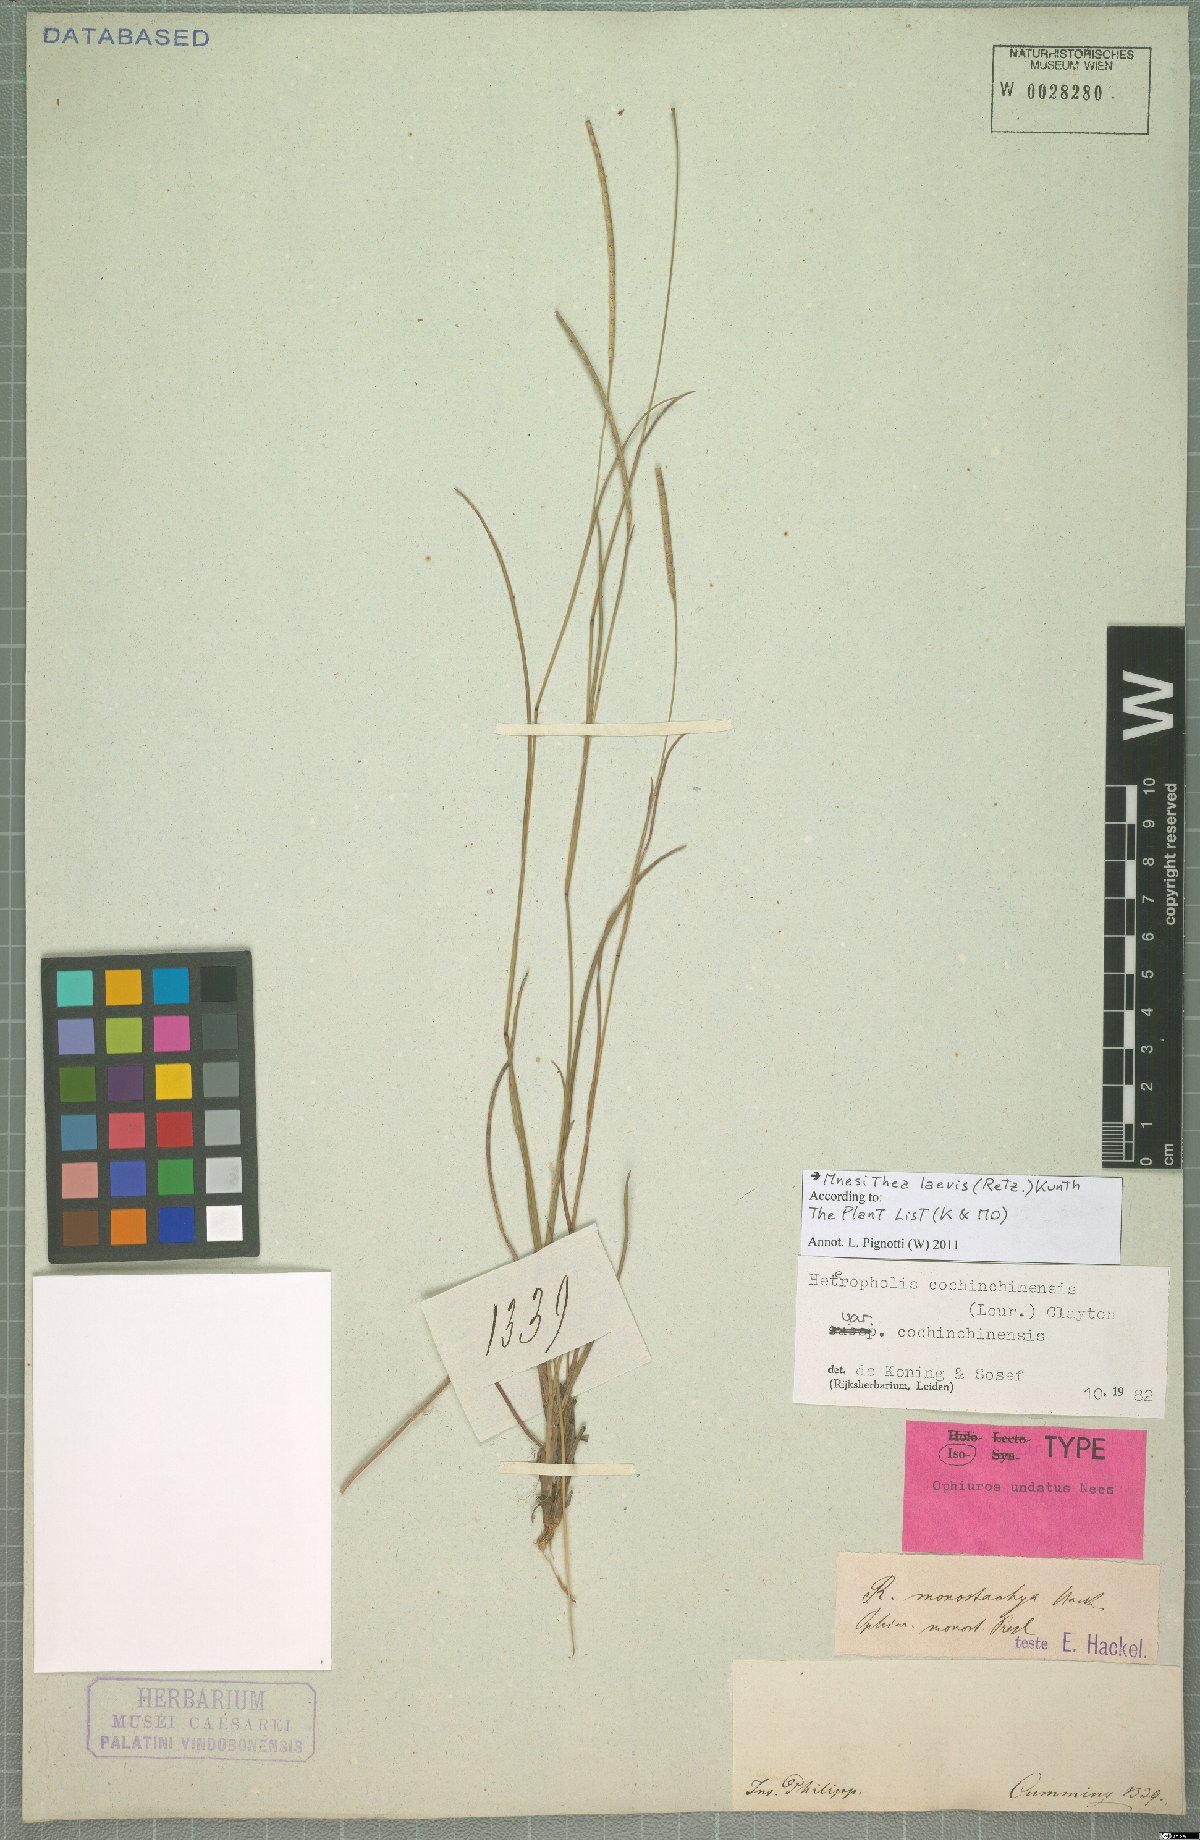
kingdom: Plantae
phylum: Tracheophyta
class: Liliopsida
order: Poales
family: Poaceae
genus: Mnesithea
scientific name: Mnesithea laevis
